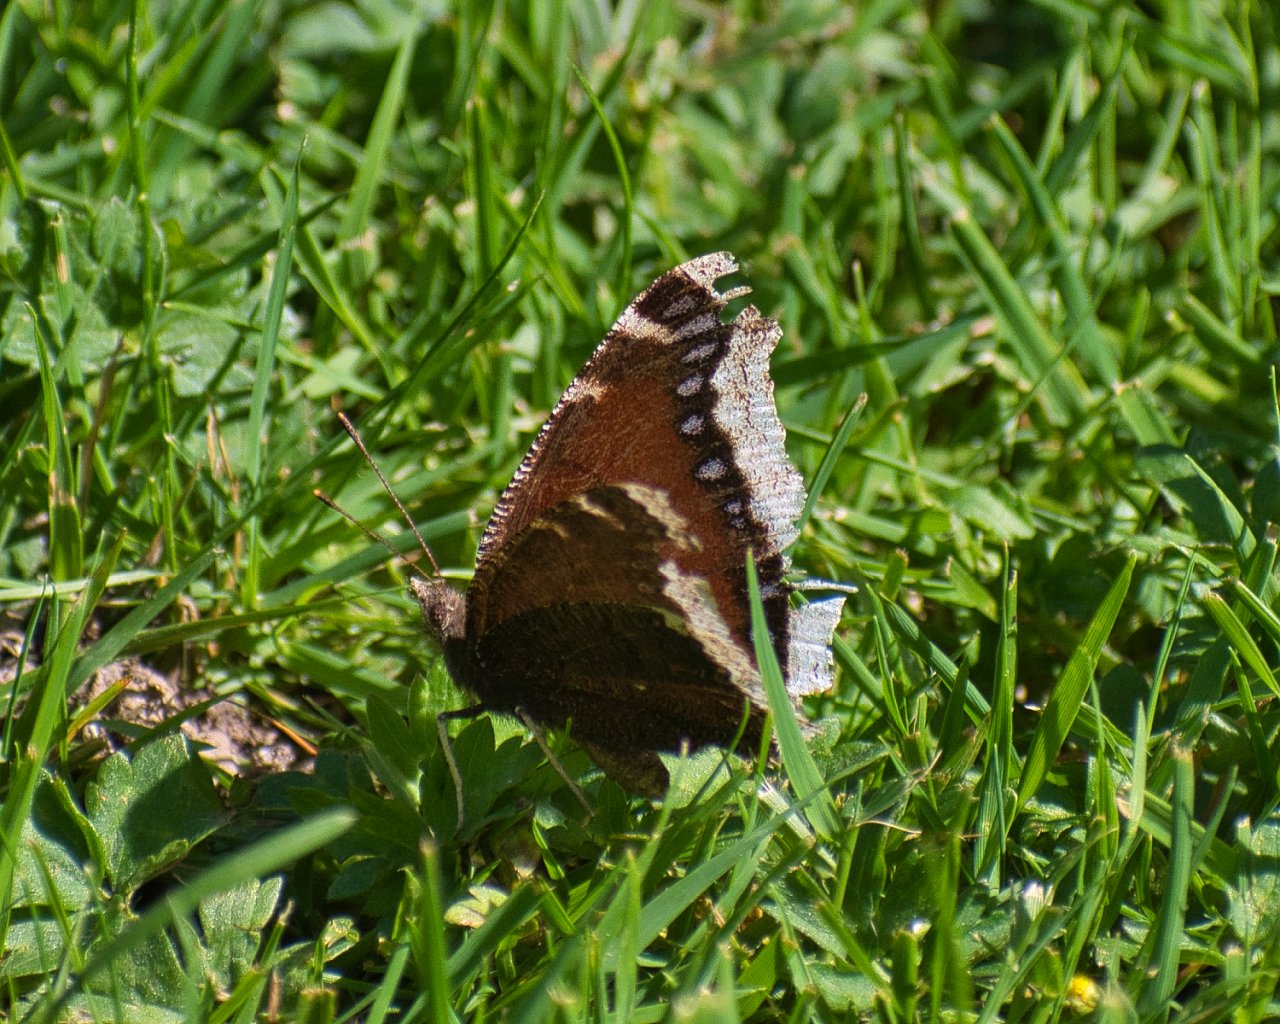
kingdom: Animalia
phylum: Arthropoda
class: Insecta
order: Lepidoptera
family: Nymphalidae
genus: Nymphalis
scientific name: Nymphalis antiopa
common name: Mourning Cloak
